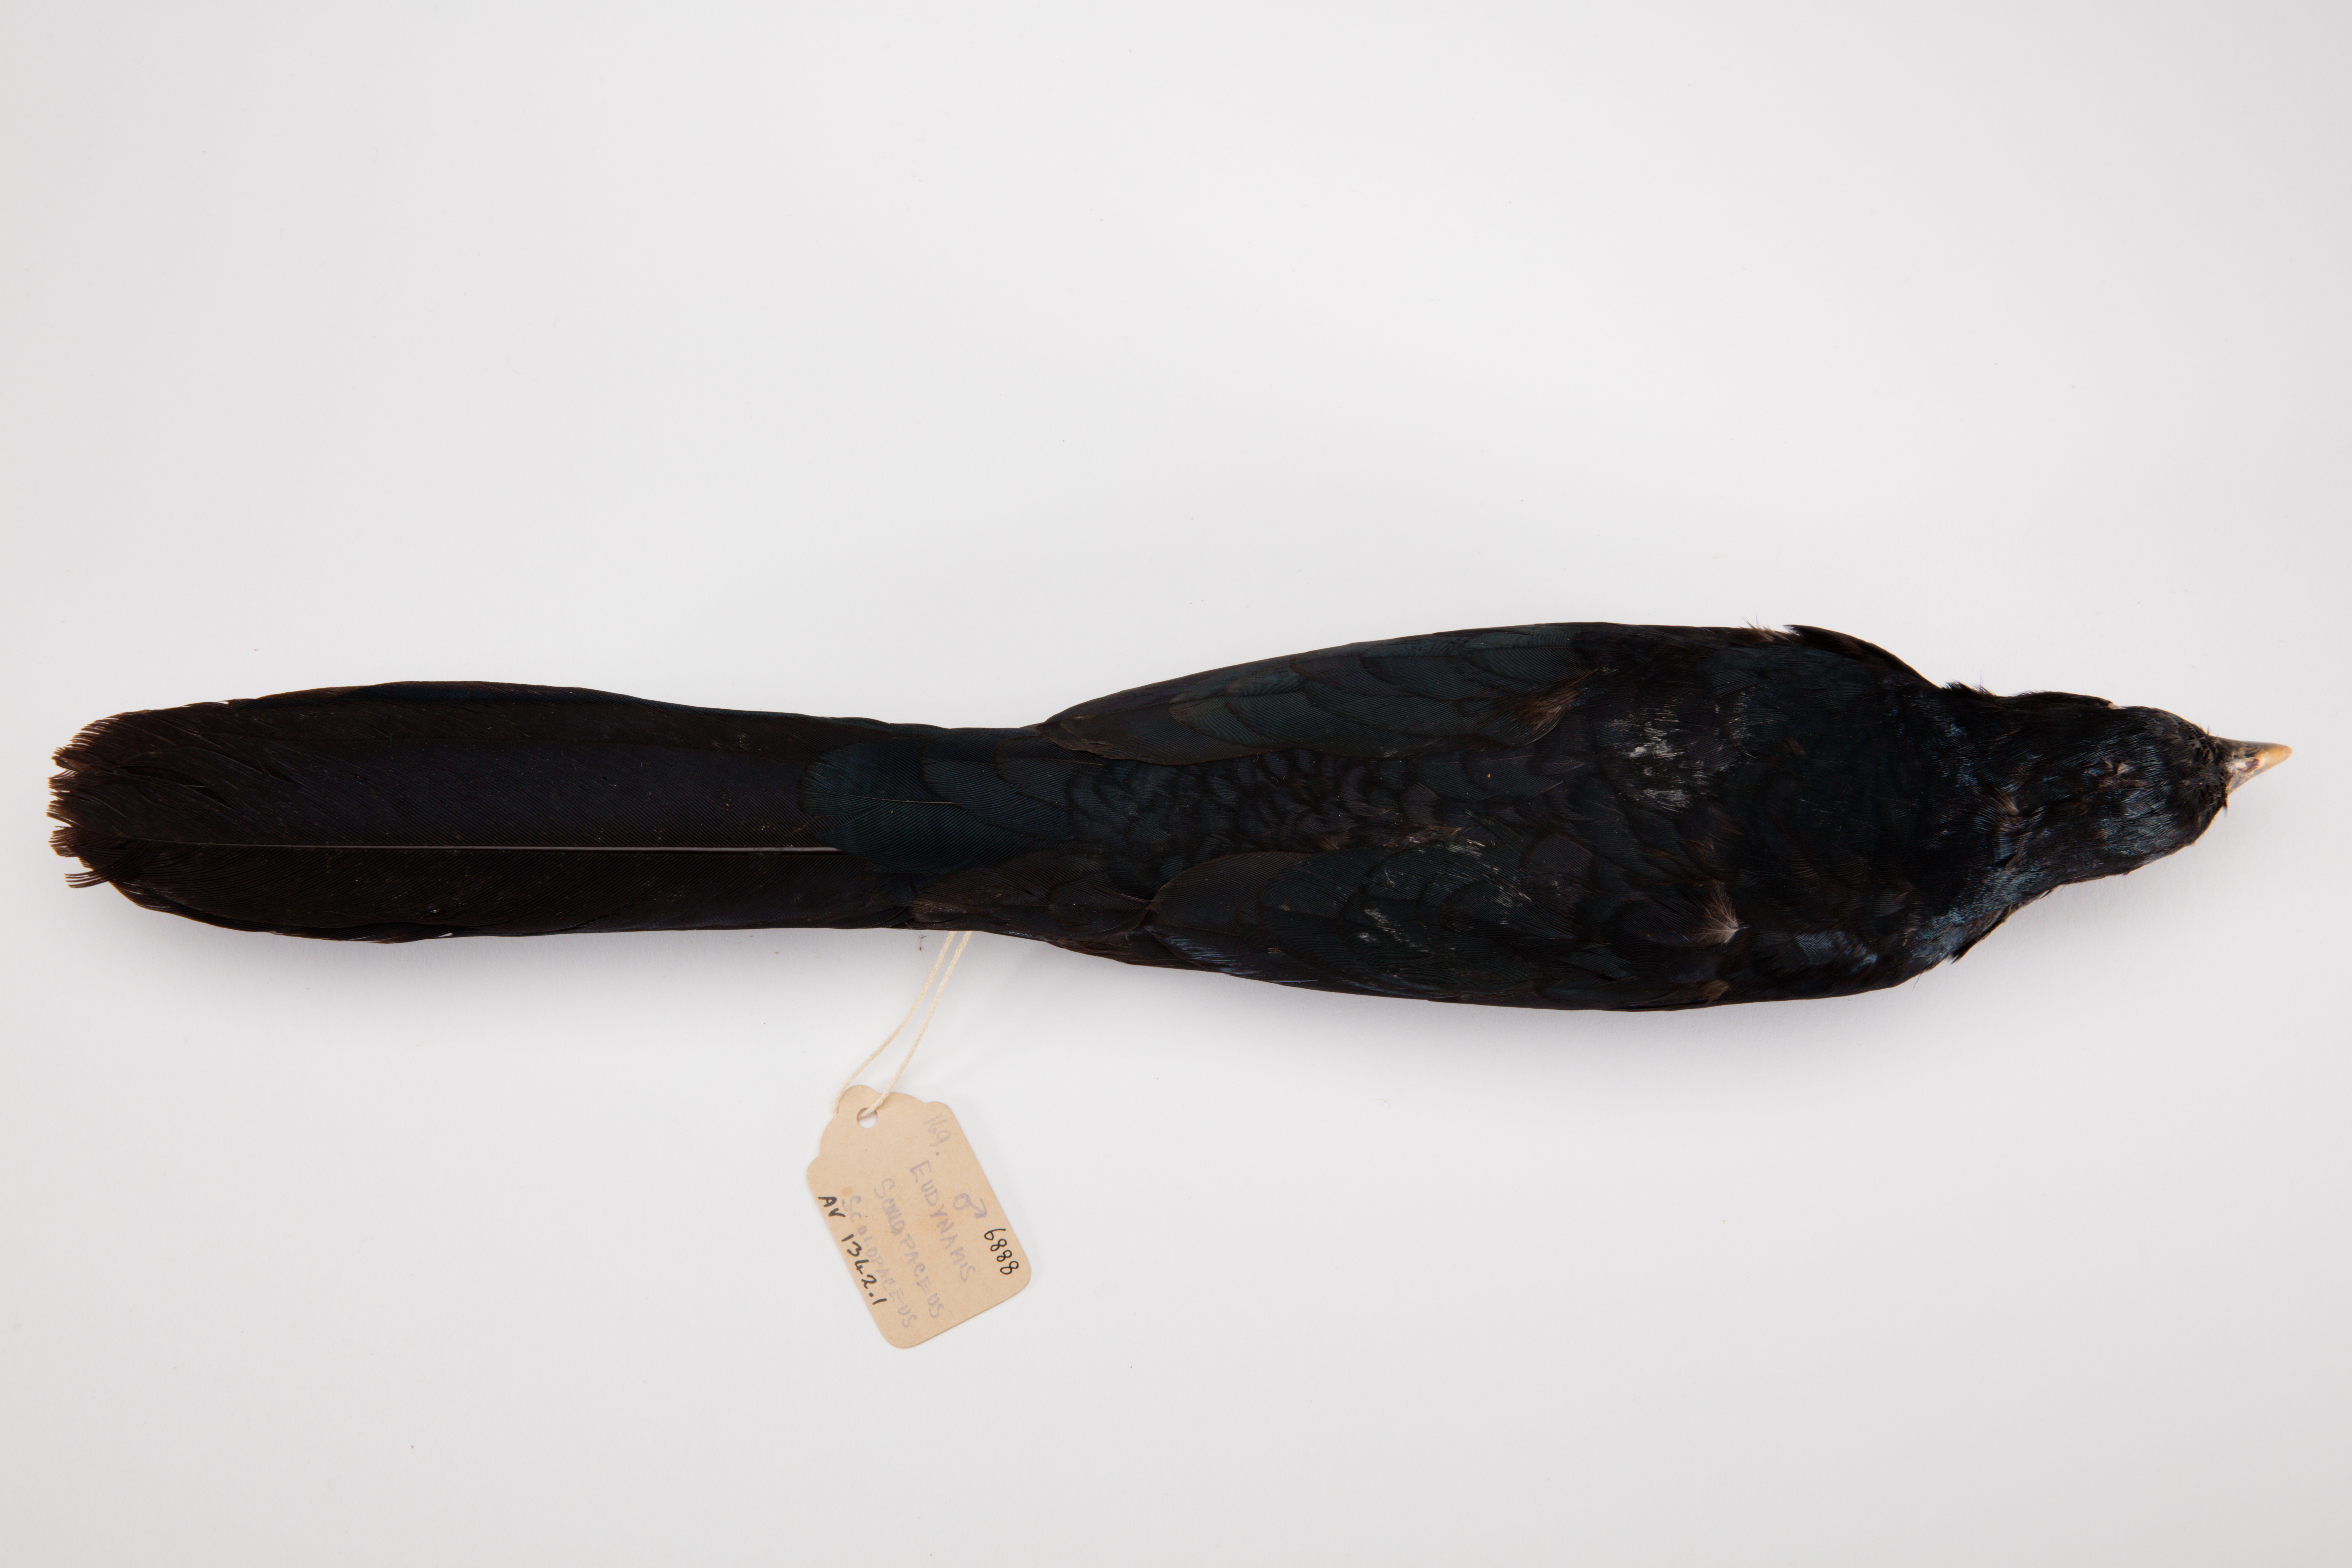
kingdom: Animalia
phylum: Chordata
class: Aves
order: Cuculiformes
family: Cuculidae
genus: Eudynamys
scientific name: Eudynamys scolopaceus
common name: Asian koel
